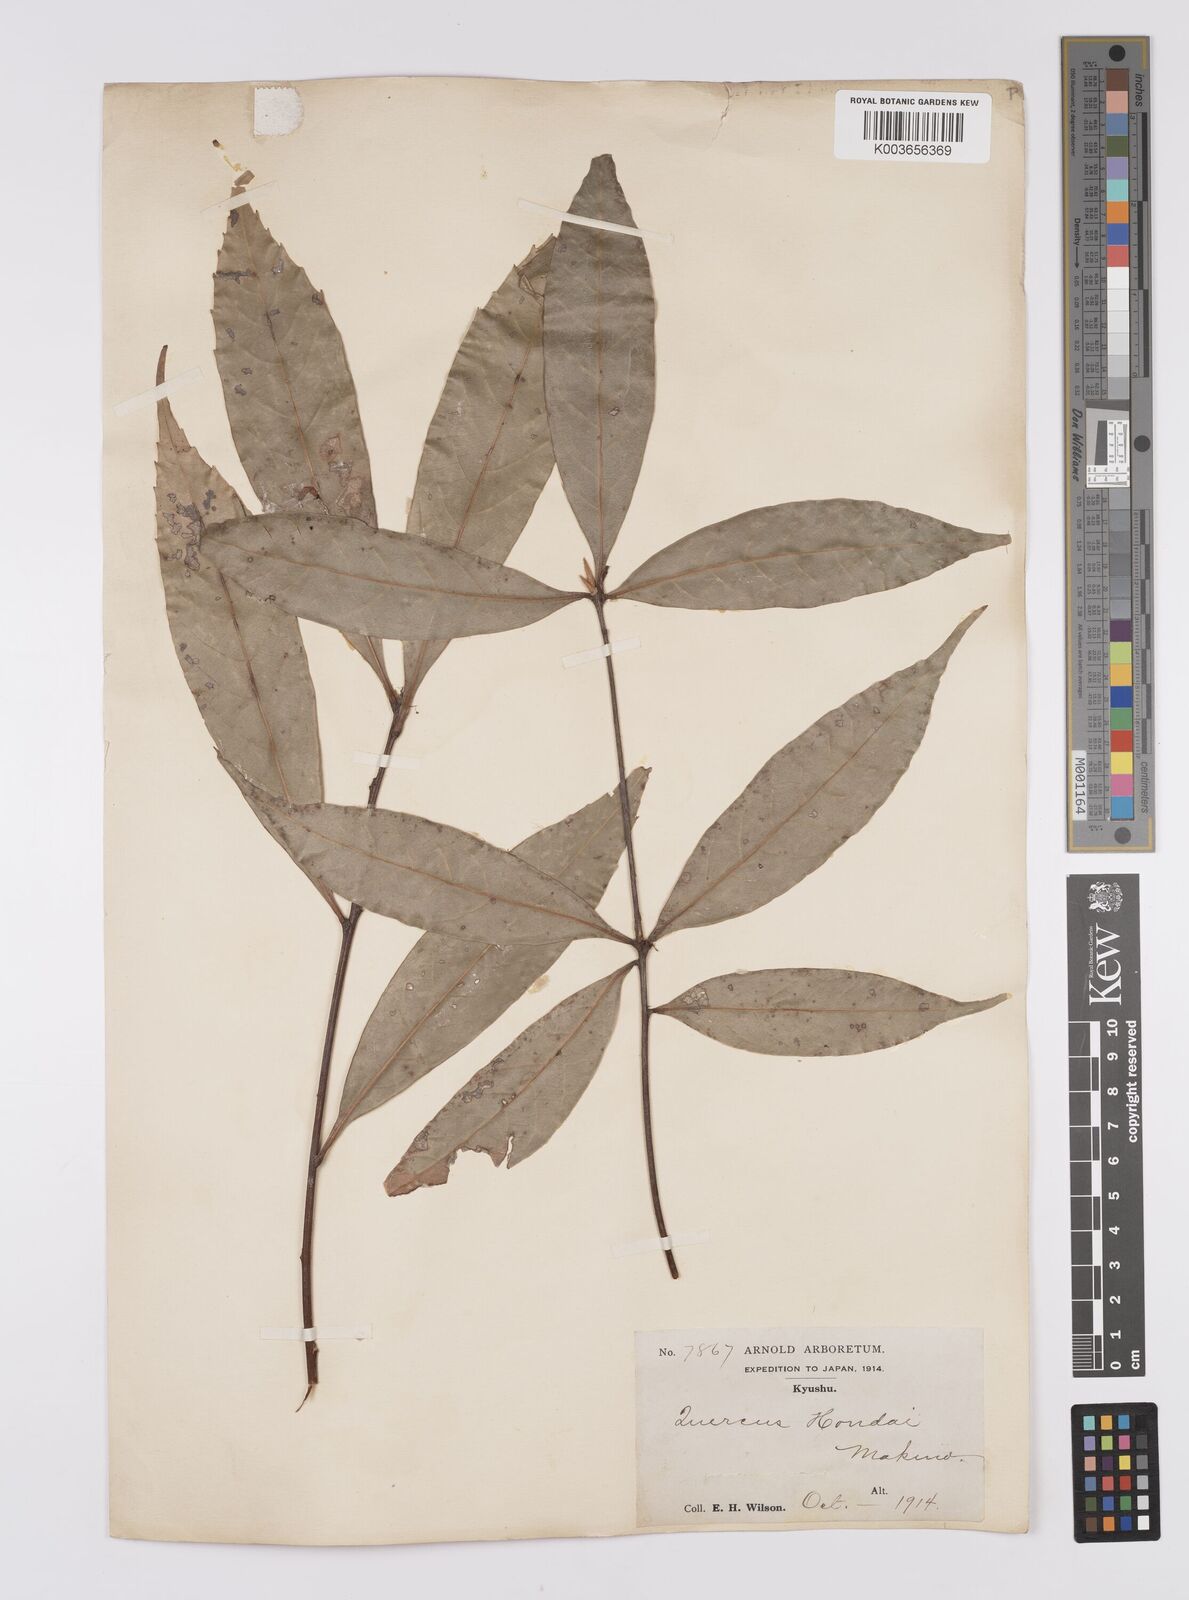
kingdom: Plantae
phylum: Tracheophyta
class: Magnoliopsida
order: Fagales
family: Fagaceae
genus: Quercus
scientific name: Quercus hondae
